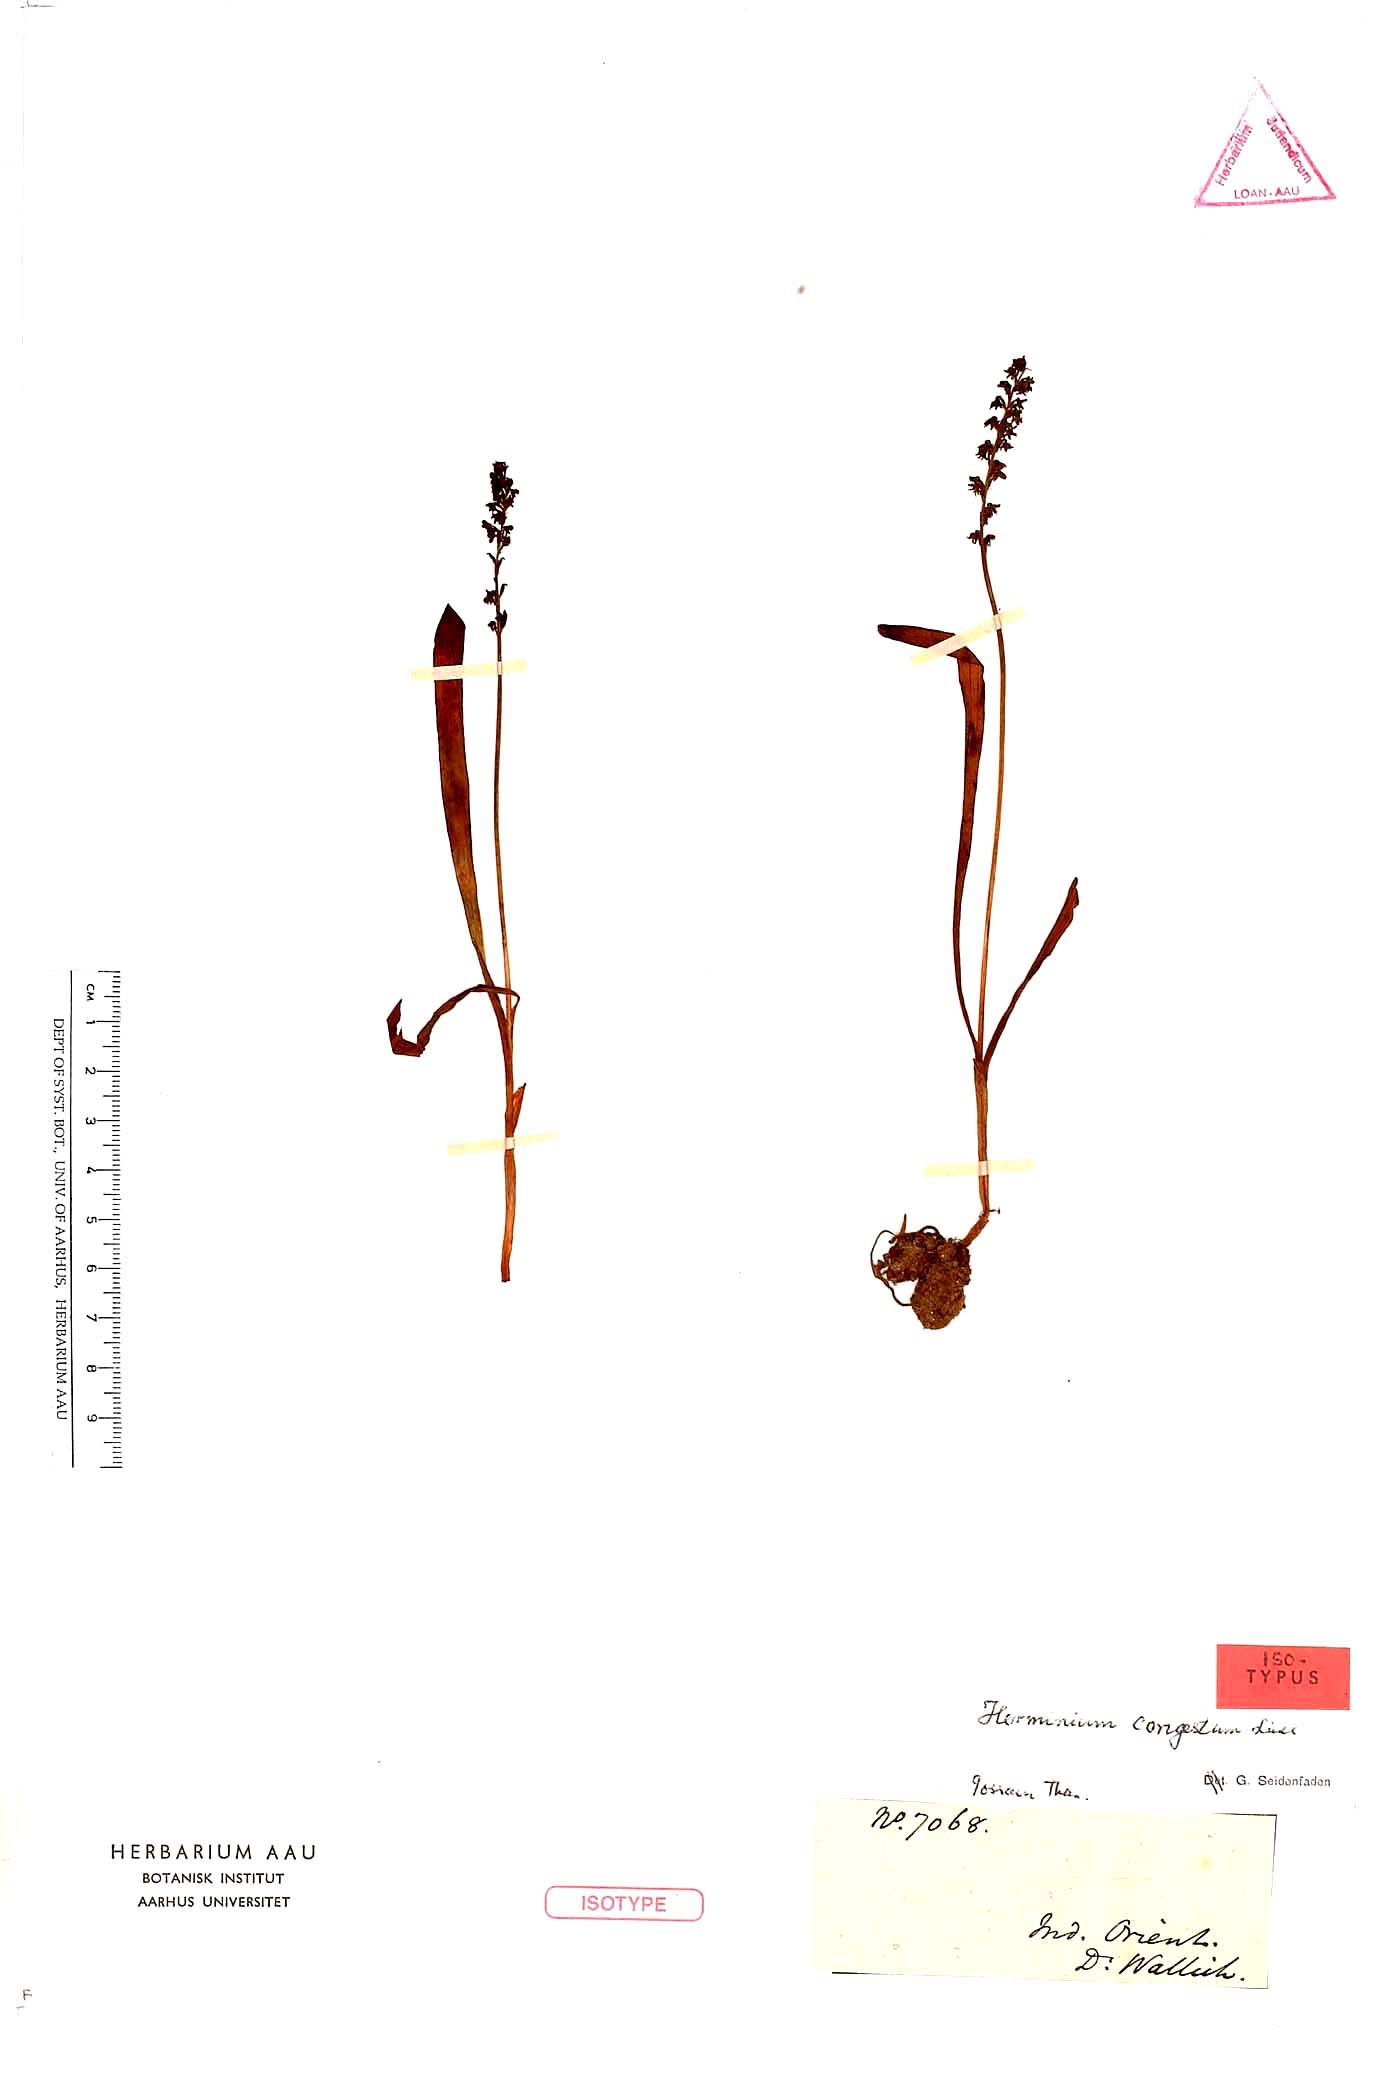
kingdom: Plantae
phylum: Tracheophyta
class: Liliopsida
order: Asparagales
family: Orchidaceae
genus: Herminium
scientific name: Herminium macrophyllum
